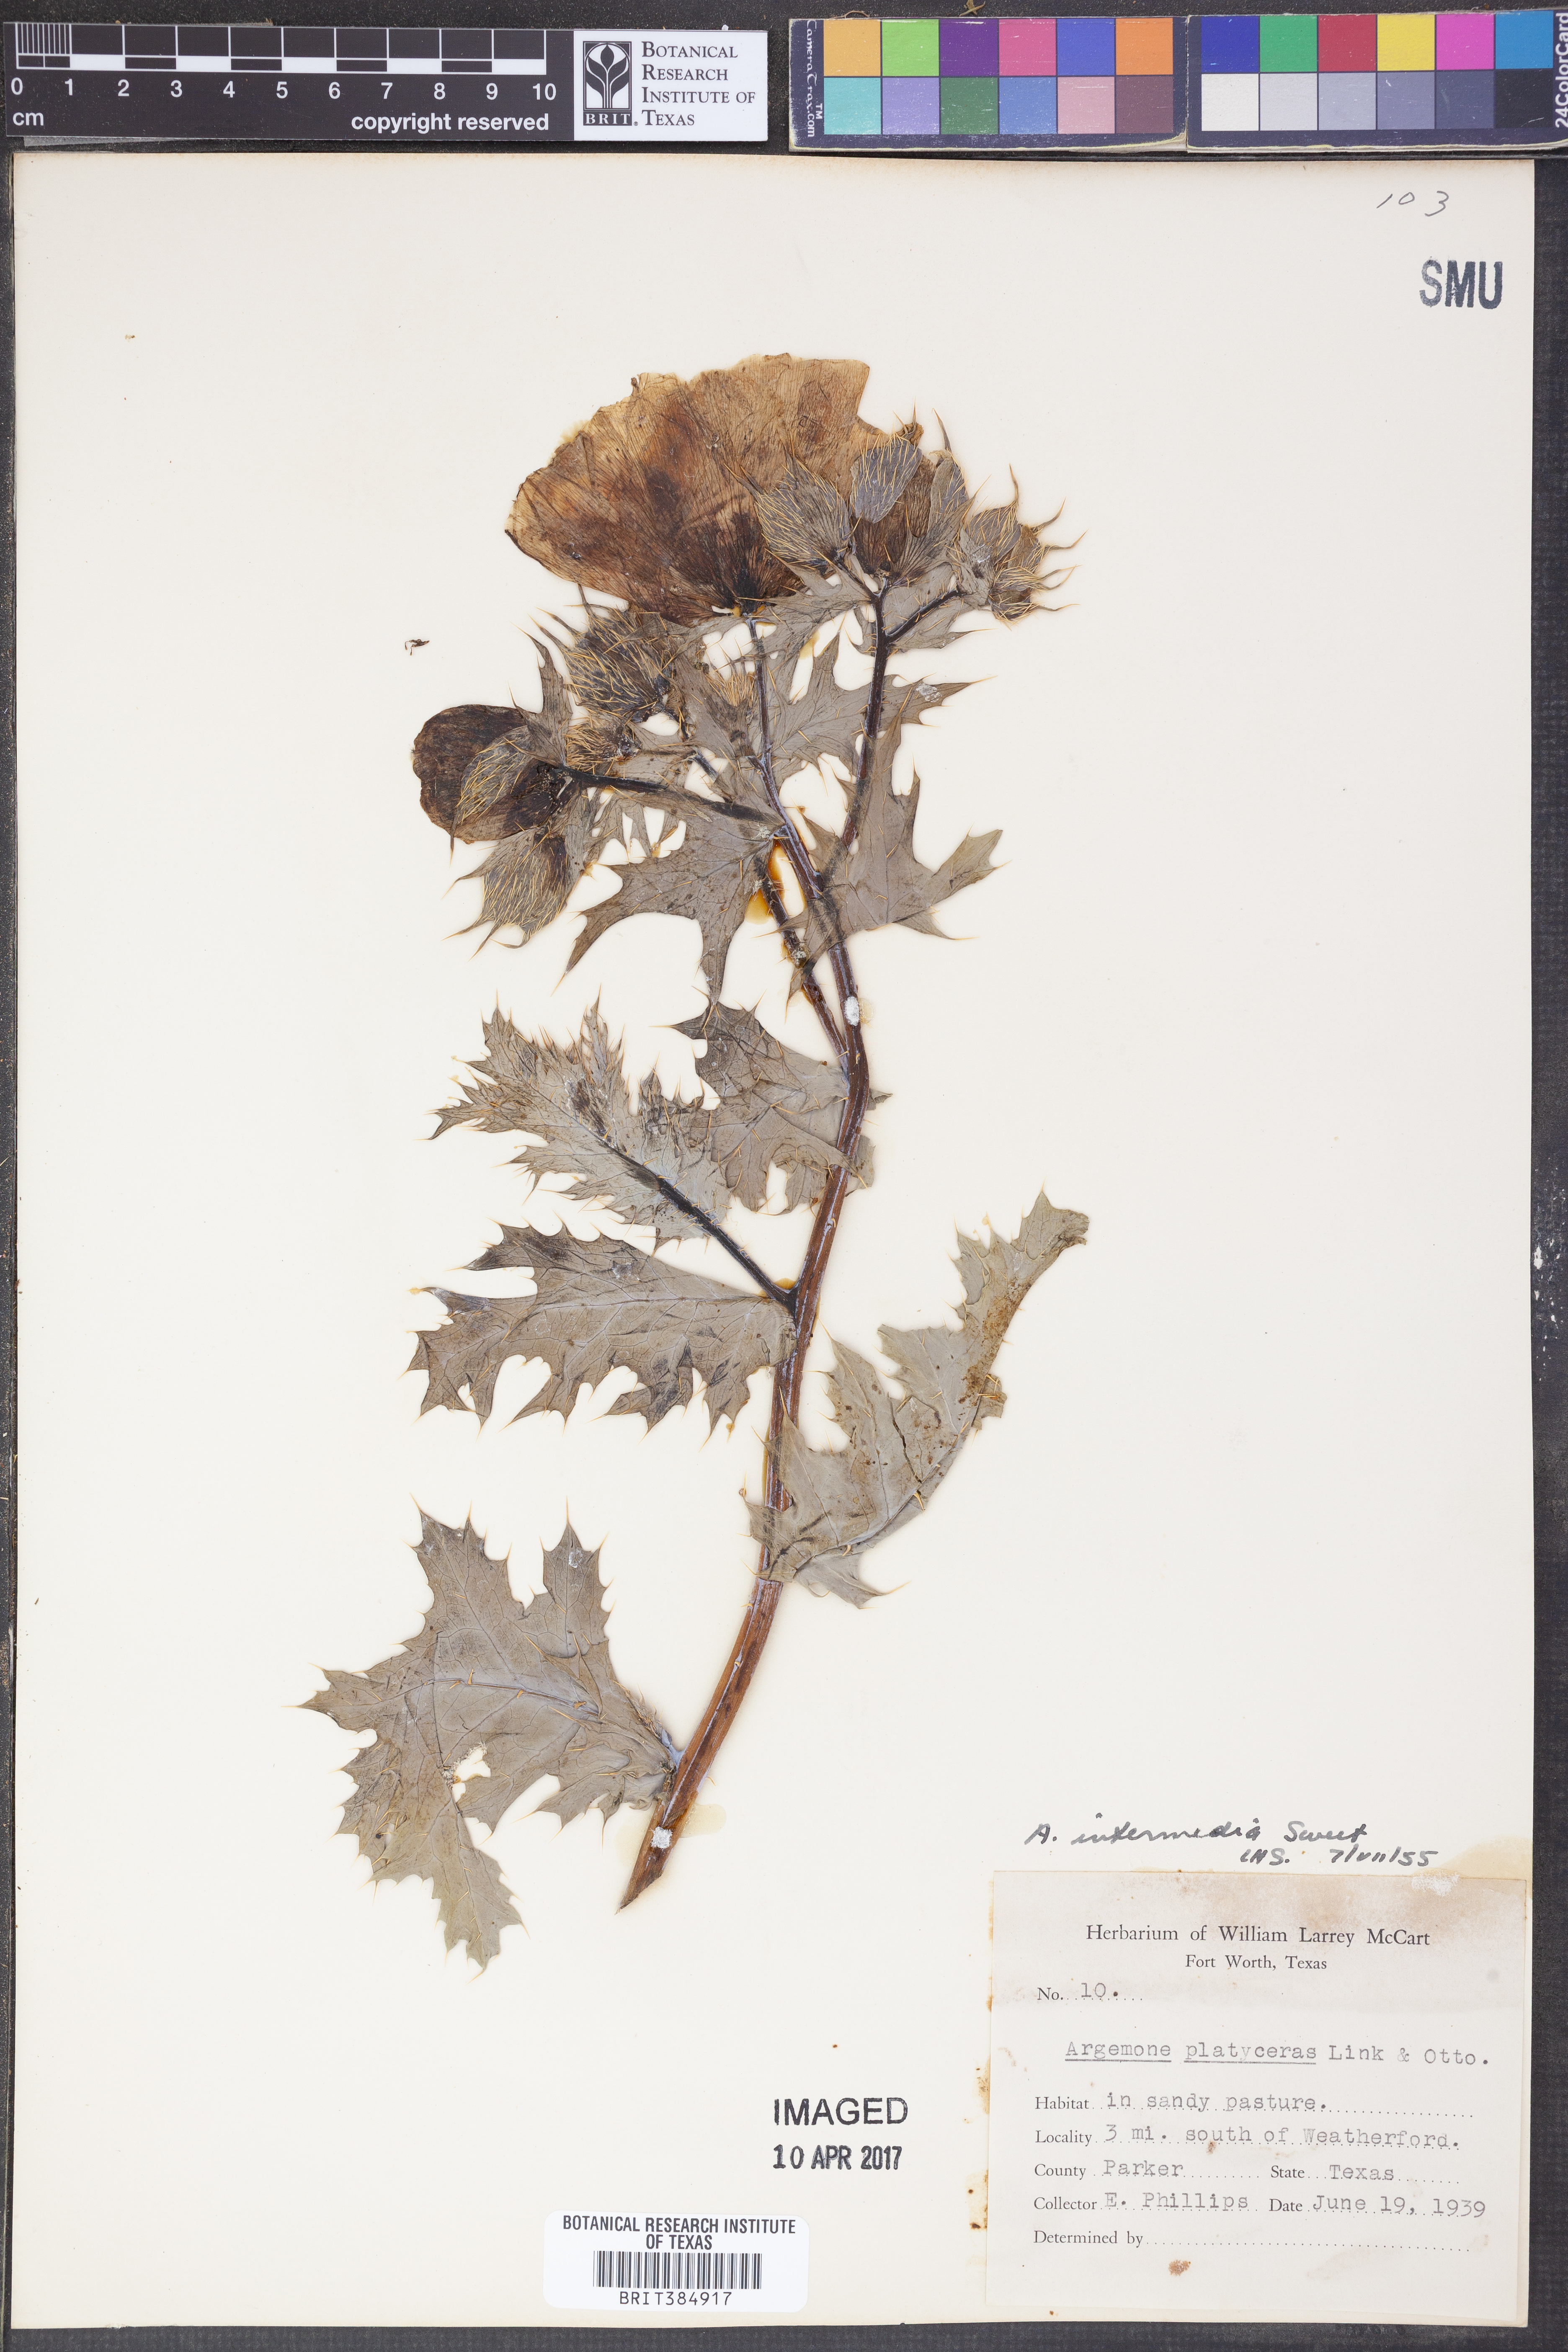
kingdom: Plantae
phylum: Tracheophyta
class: Magnoliopsida
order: Ranunculales
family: Papaveraceae
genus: Argemone
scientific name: Argemone intermedia
